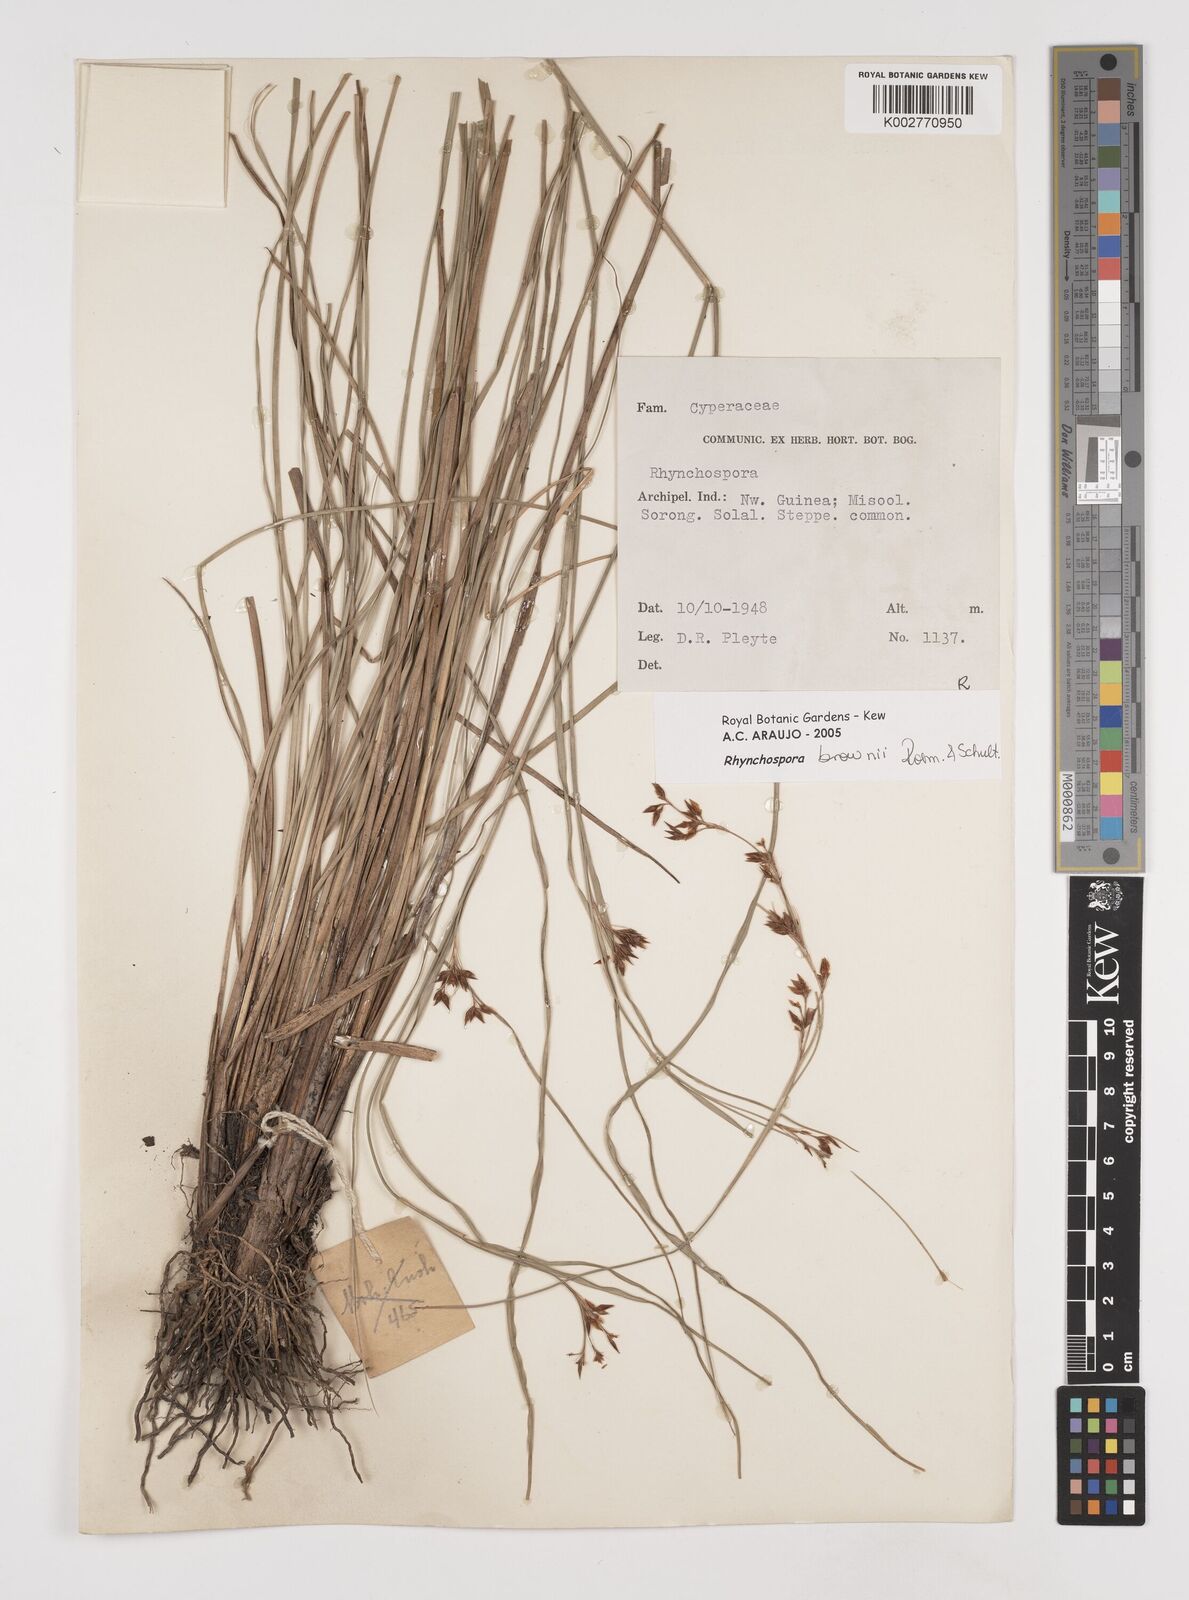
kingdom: Plantae
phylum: Tracheophyta
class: Liliopsida
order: Poales
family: Cyperaceae
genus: Rhynchospora
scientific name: Rhynchospora brownii
